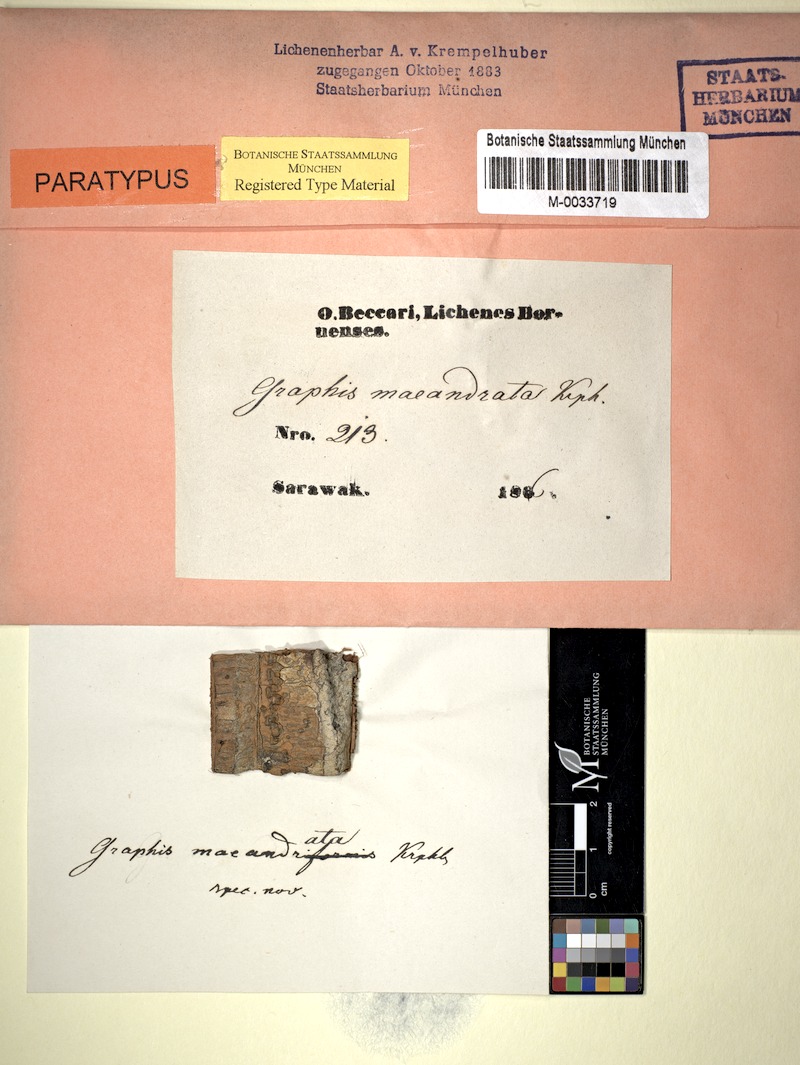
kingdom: Fungi
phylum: Ascomycota
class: Lecanoromycetes
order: Ostropales
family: Graphidaceae
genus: Phaeographis
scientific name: Phaeographis
